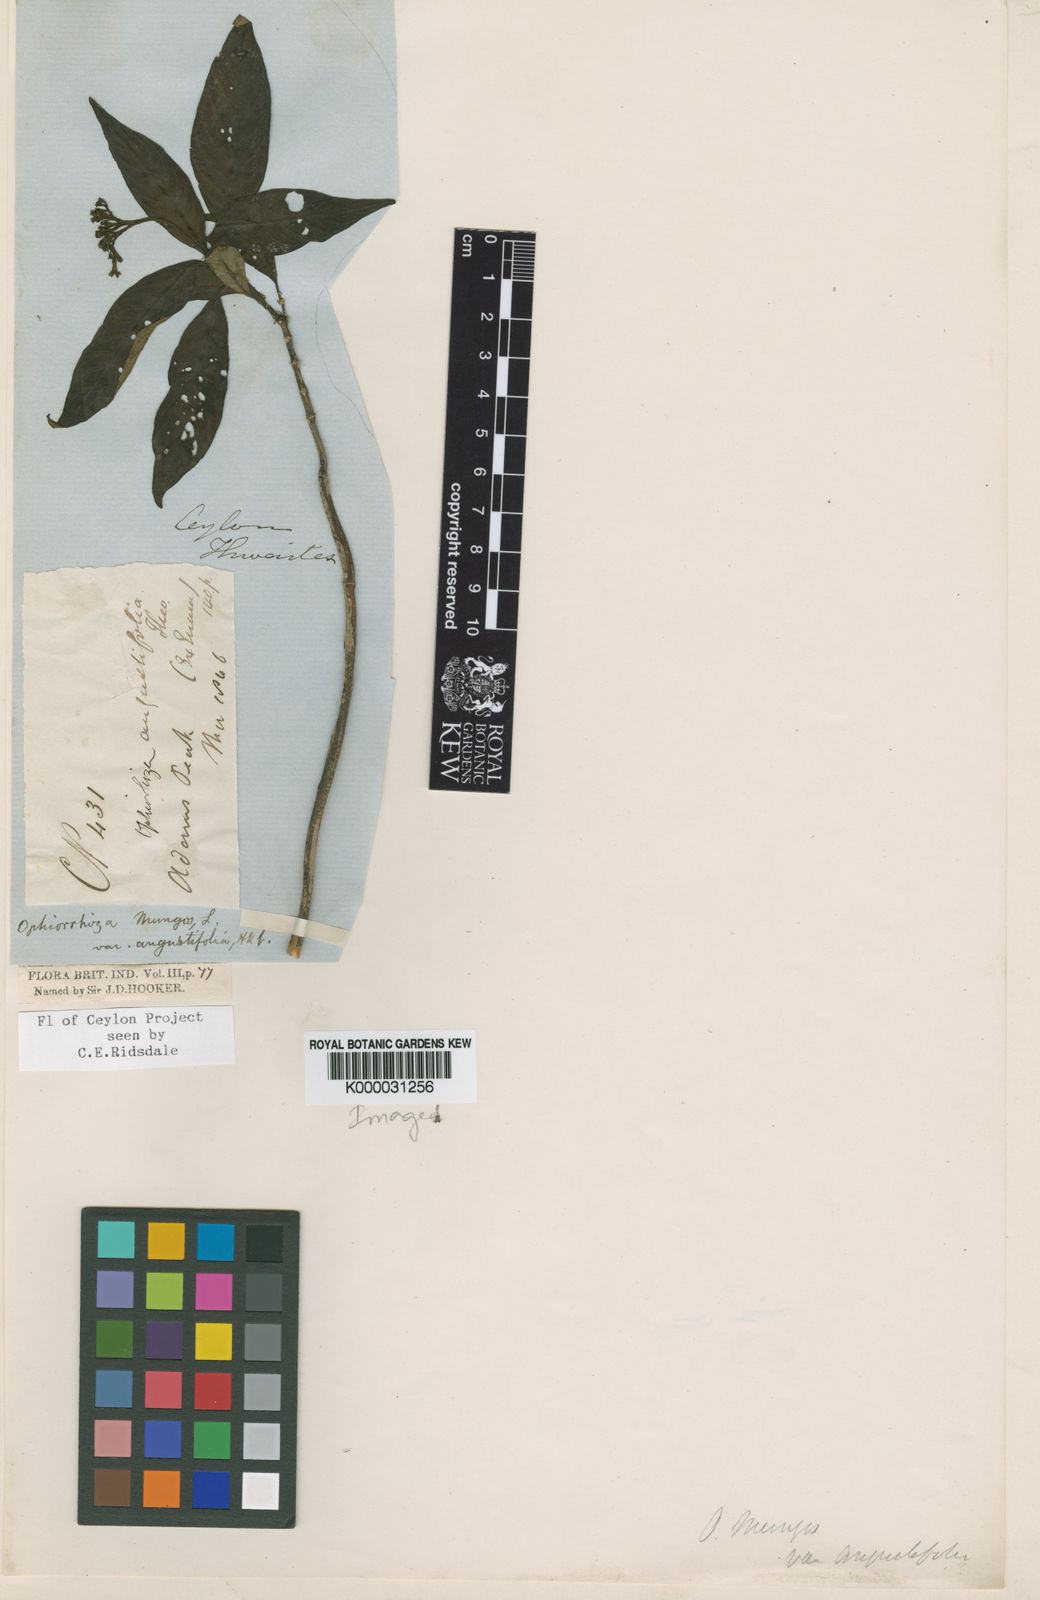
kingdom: Plantae
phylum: Tracheophyta
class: Magnoliopsida
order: Gentianales
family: Rubiaceae
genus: Ophiorrhiza
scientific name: Ophiorrhiza mungos
